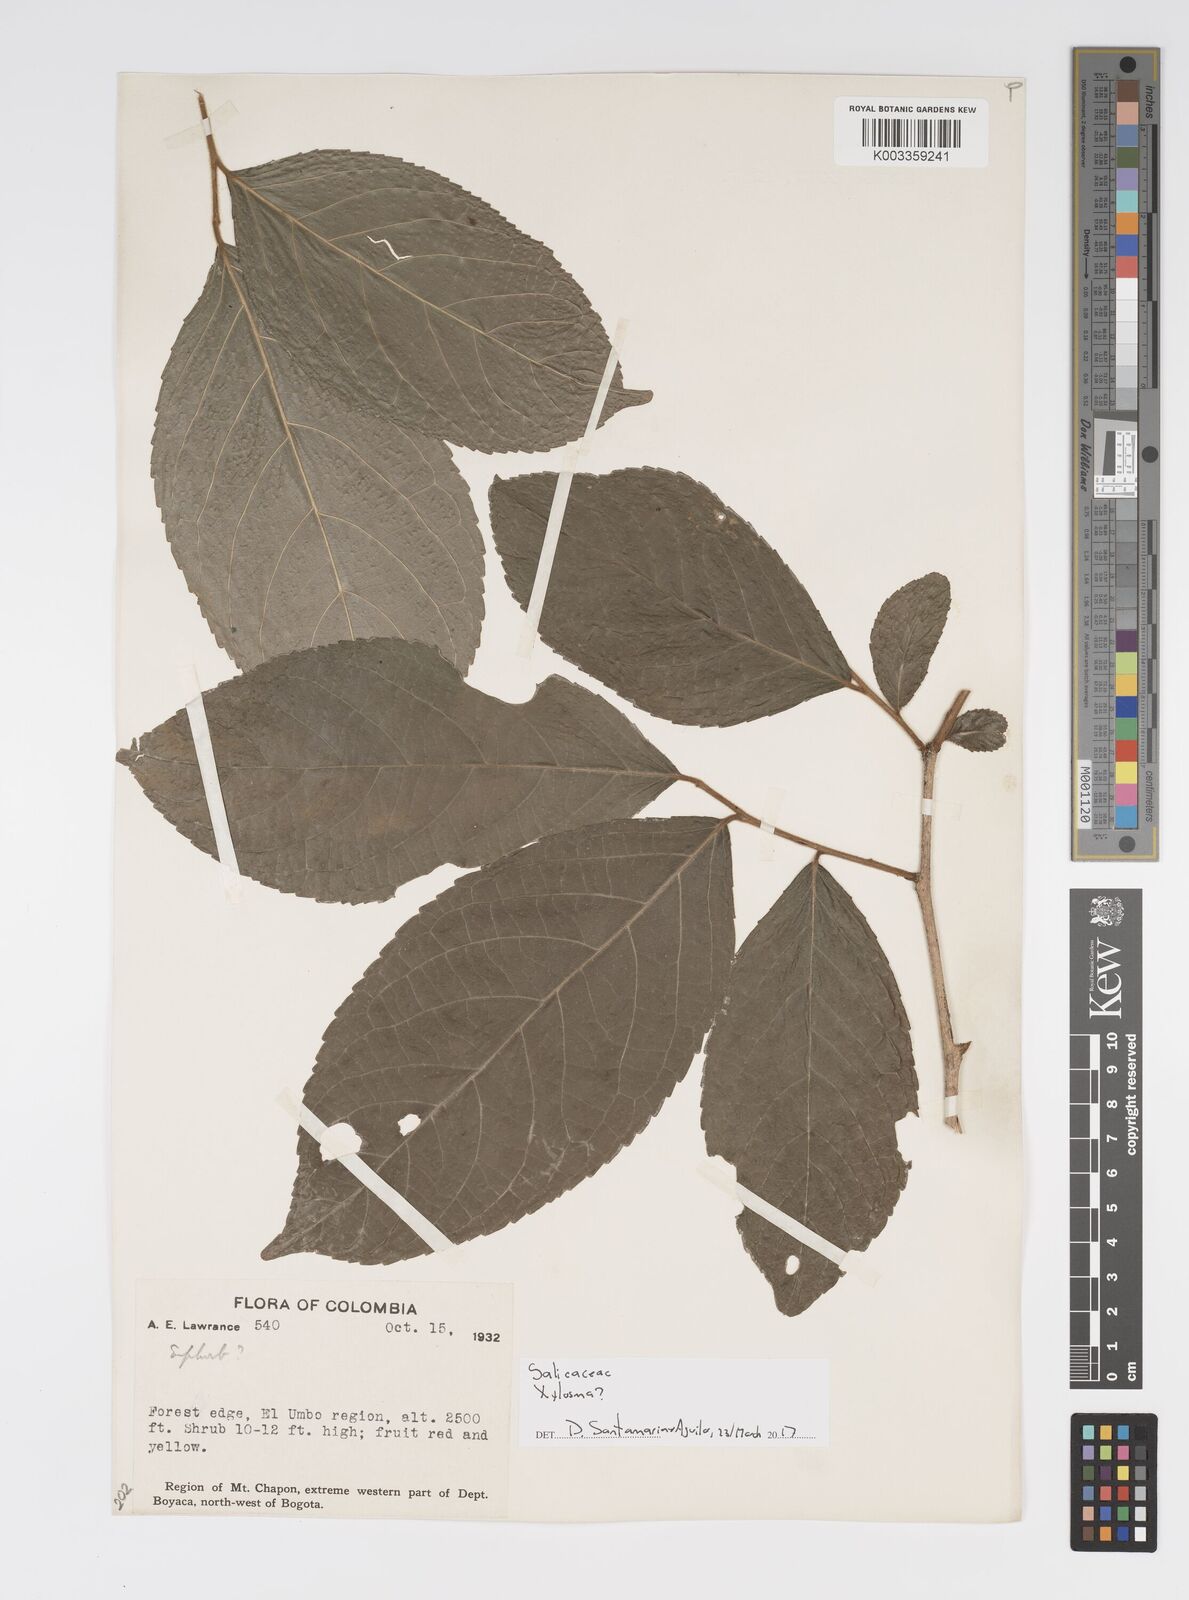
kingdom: Plantae
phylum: Tracheophyta
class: Magnoliopsida
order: Malpighiales
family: Salicaceae
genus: Xylosma
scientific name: Xylosma
